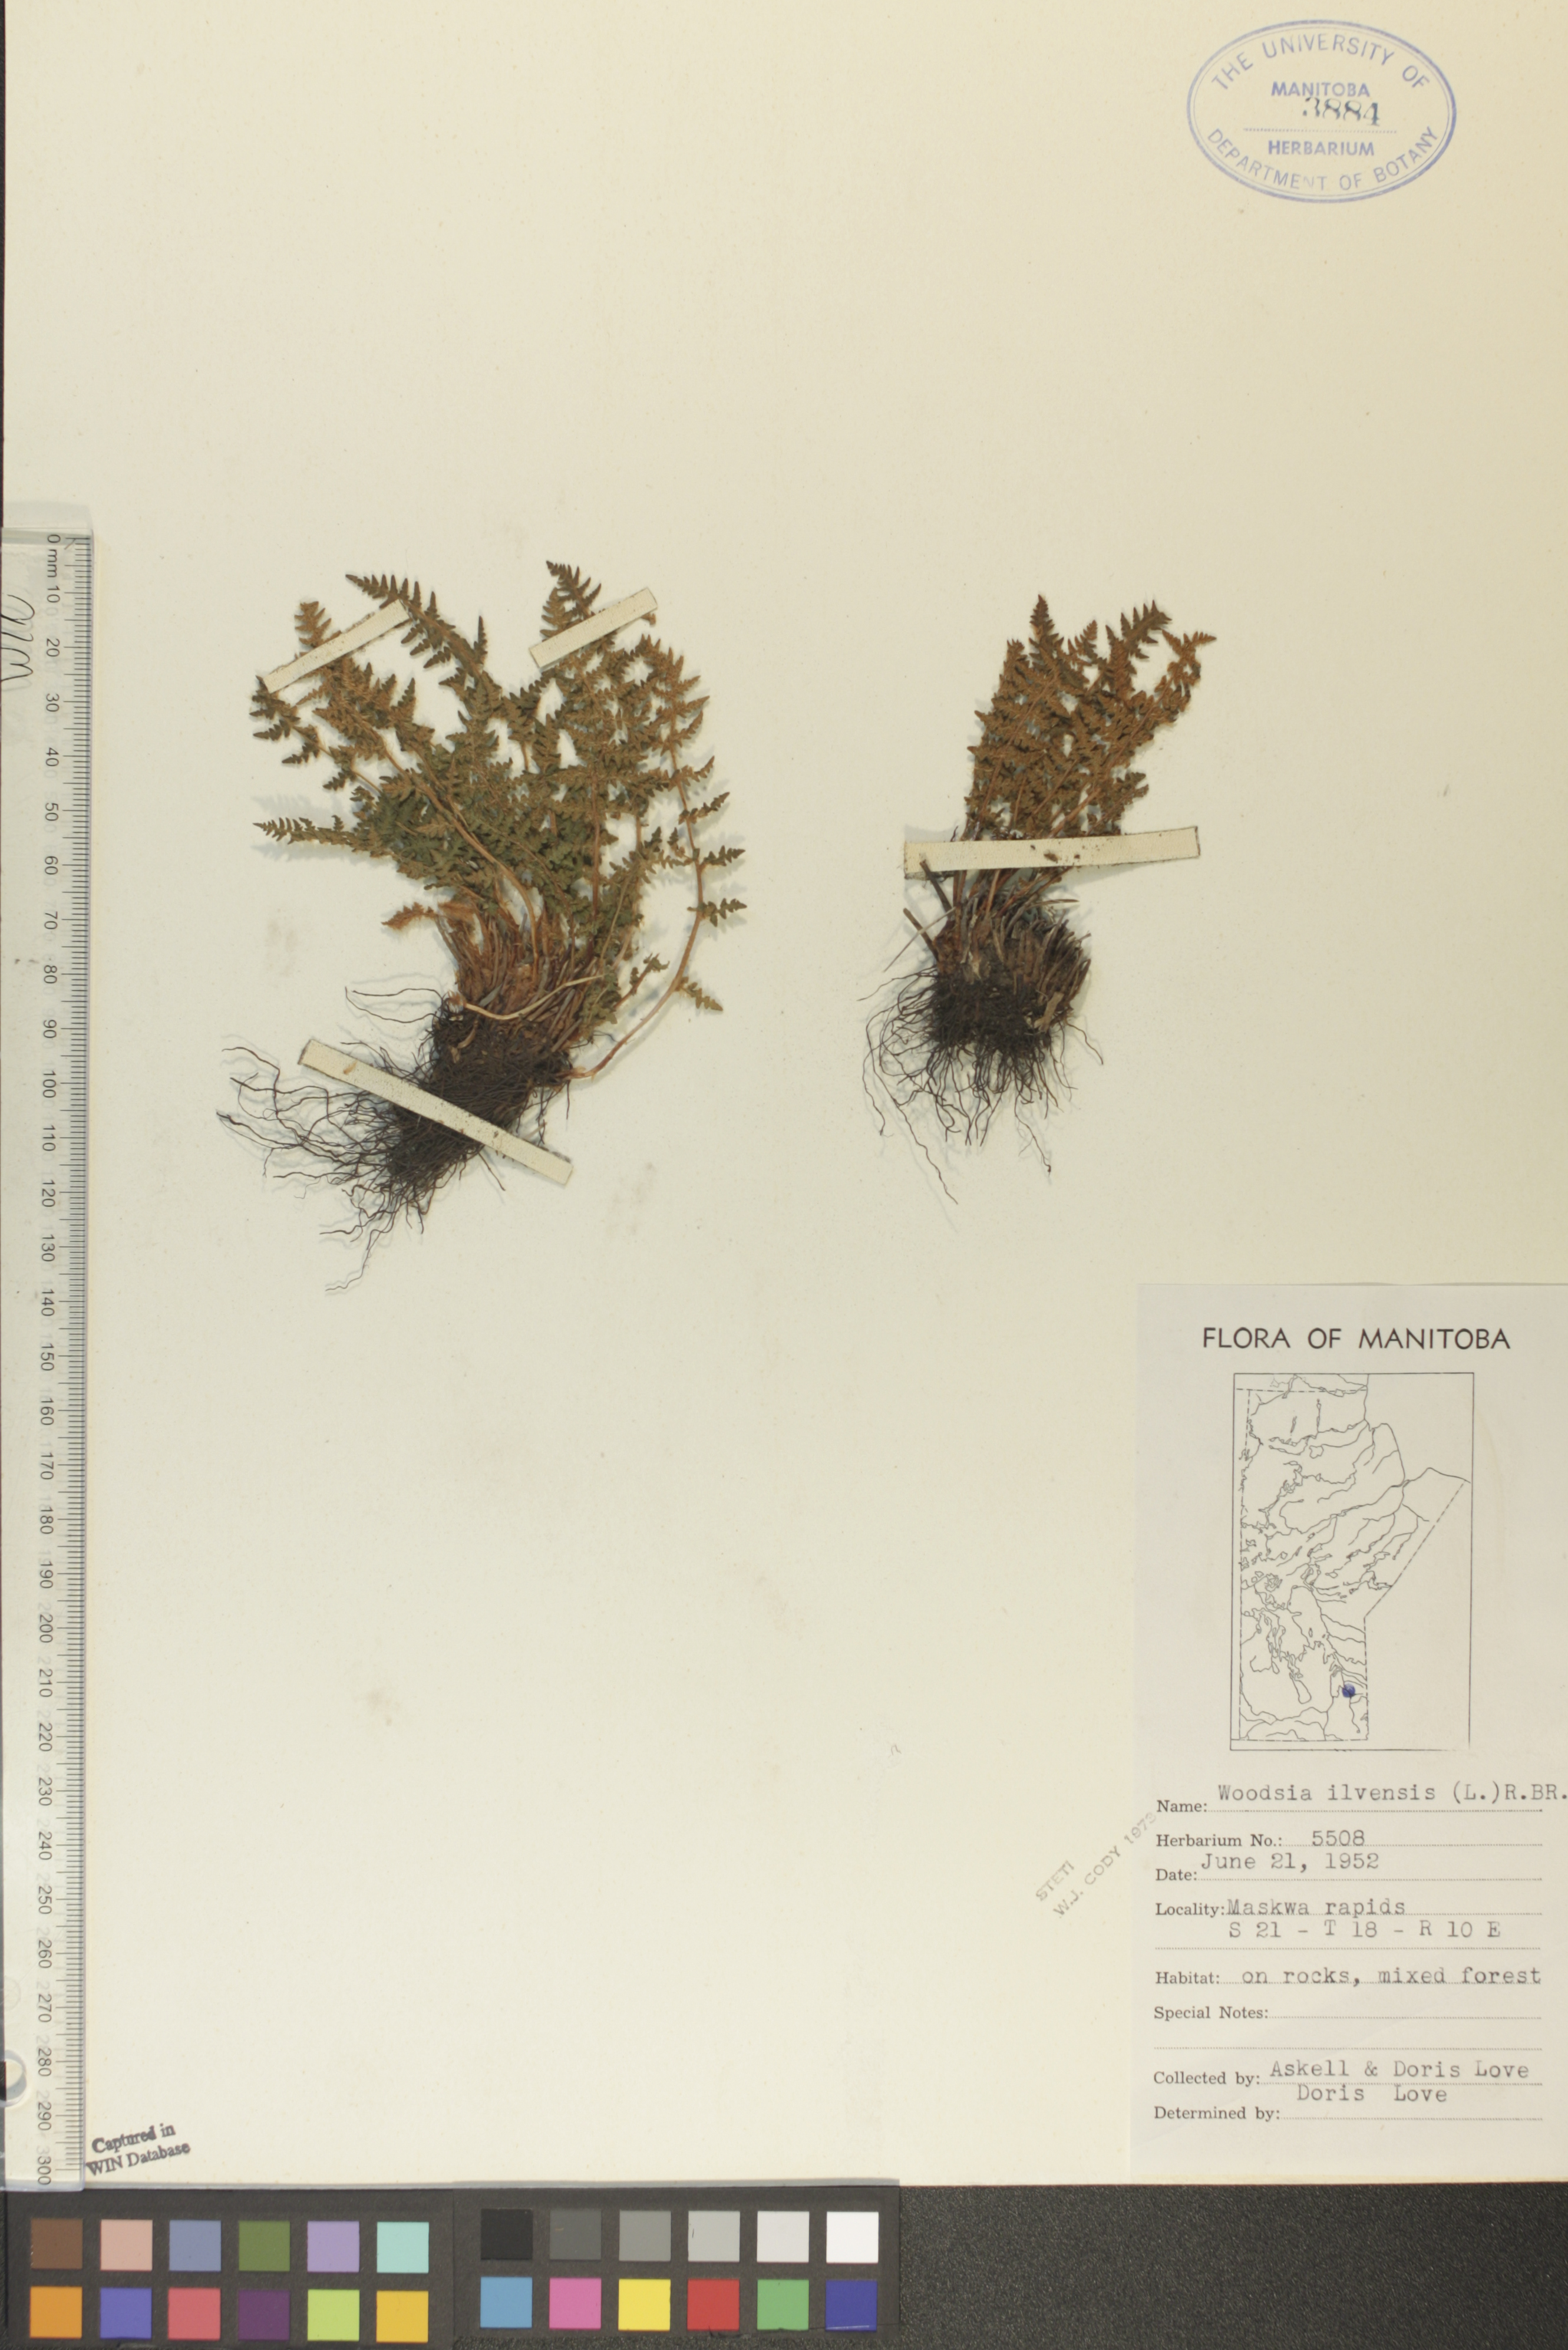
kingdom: Plantae
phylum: Tracheophyta
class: Polypodiopsida
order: Polypodiales
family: Woodsiaceae
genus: Woodsia
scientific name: Woodsia ilvensis
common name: Fragrant woodsia
